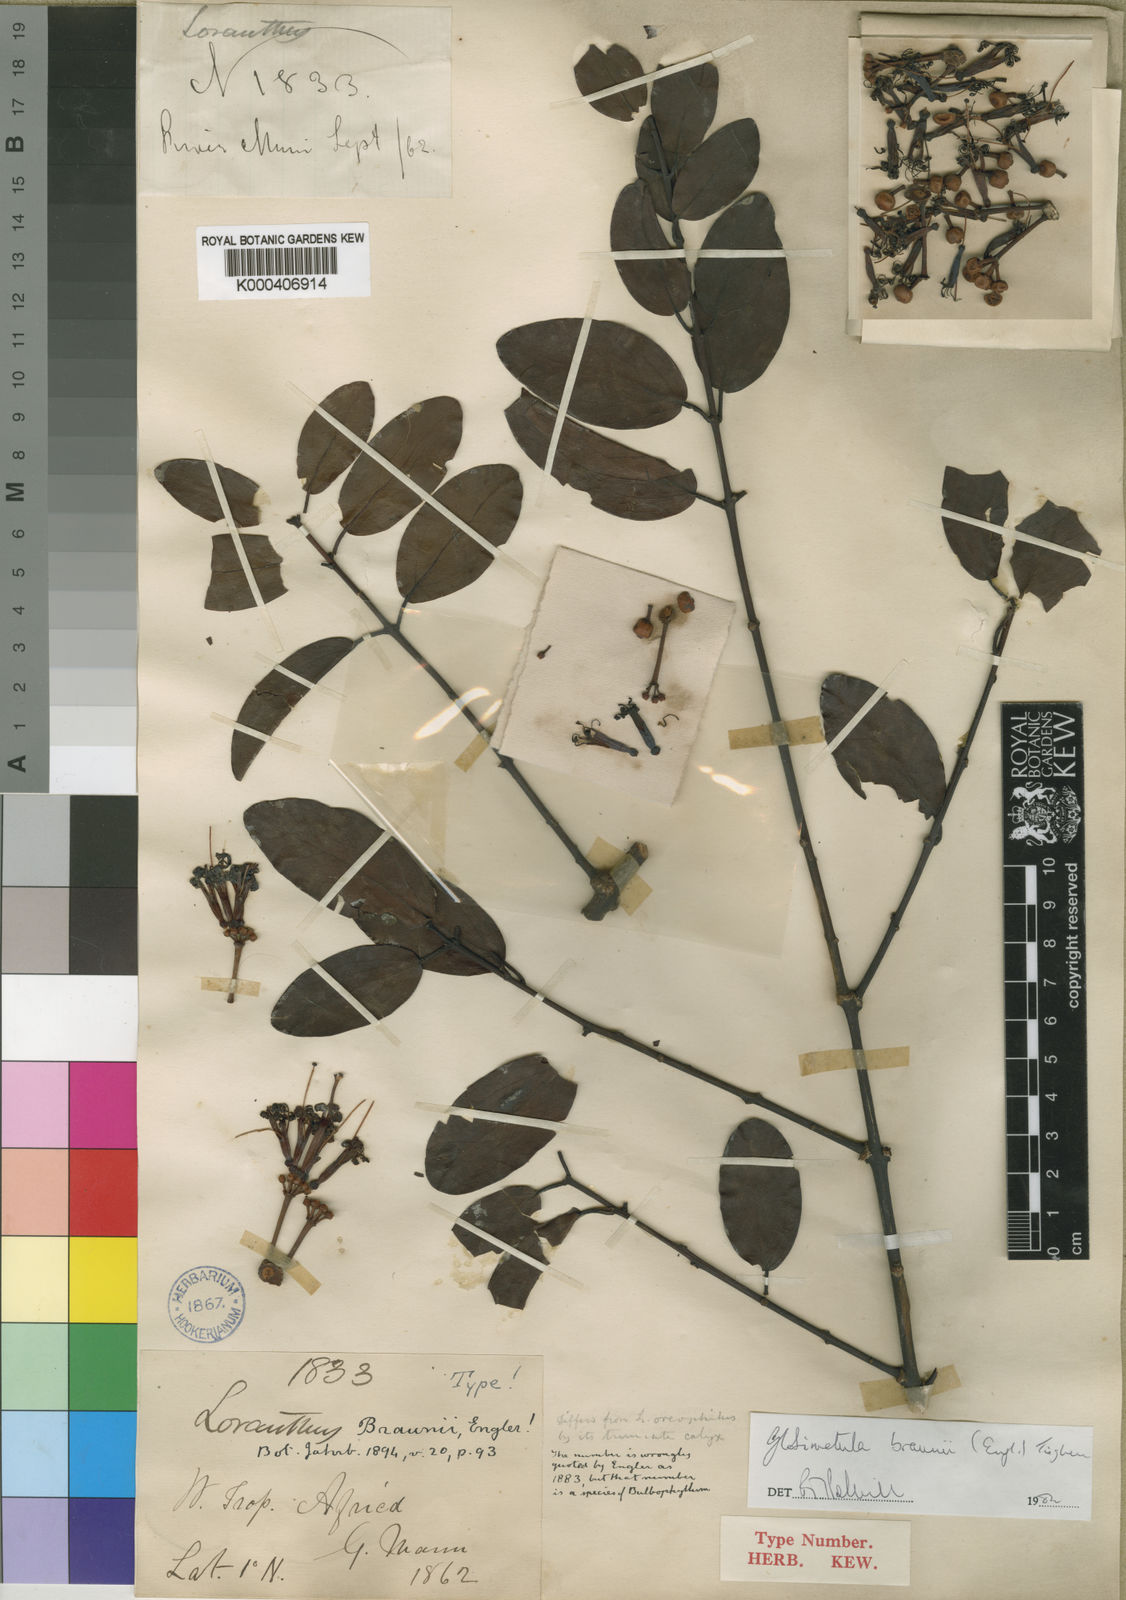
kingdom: Plantae
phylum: Tracheophyta
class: Magnoliopsida
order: Santalales
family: Loranthaceae
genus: Globimetula
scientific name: Globimetula braunii
